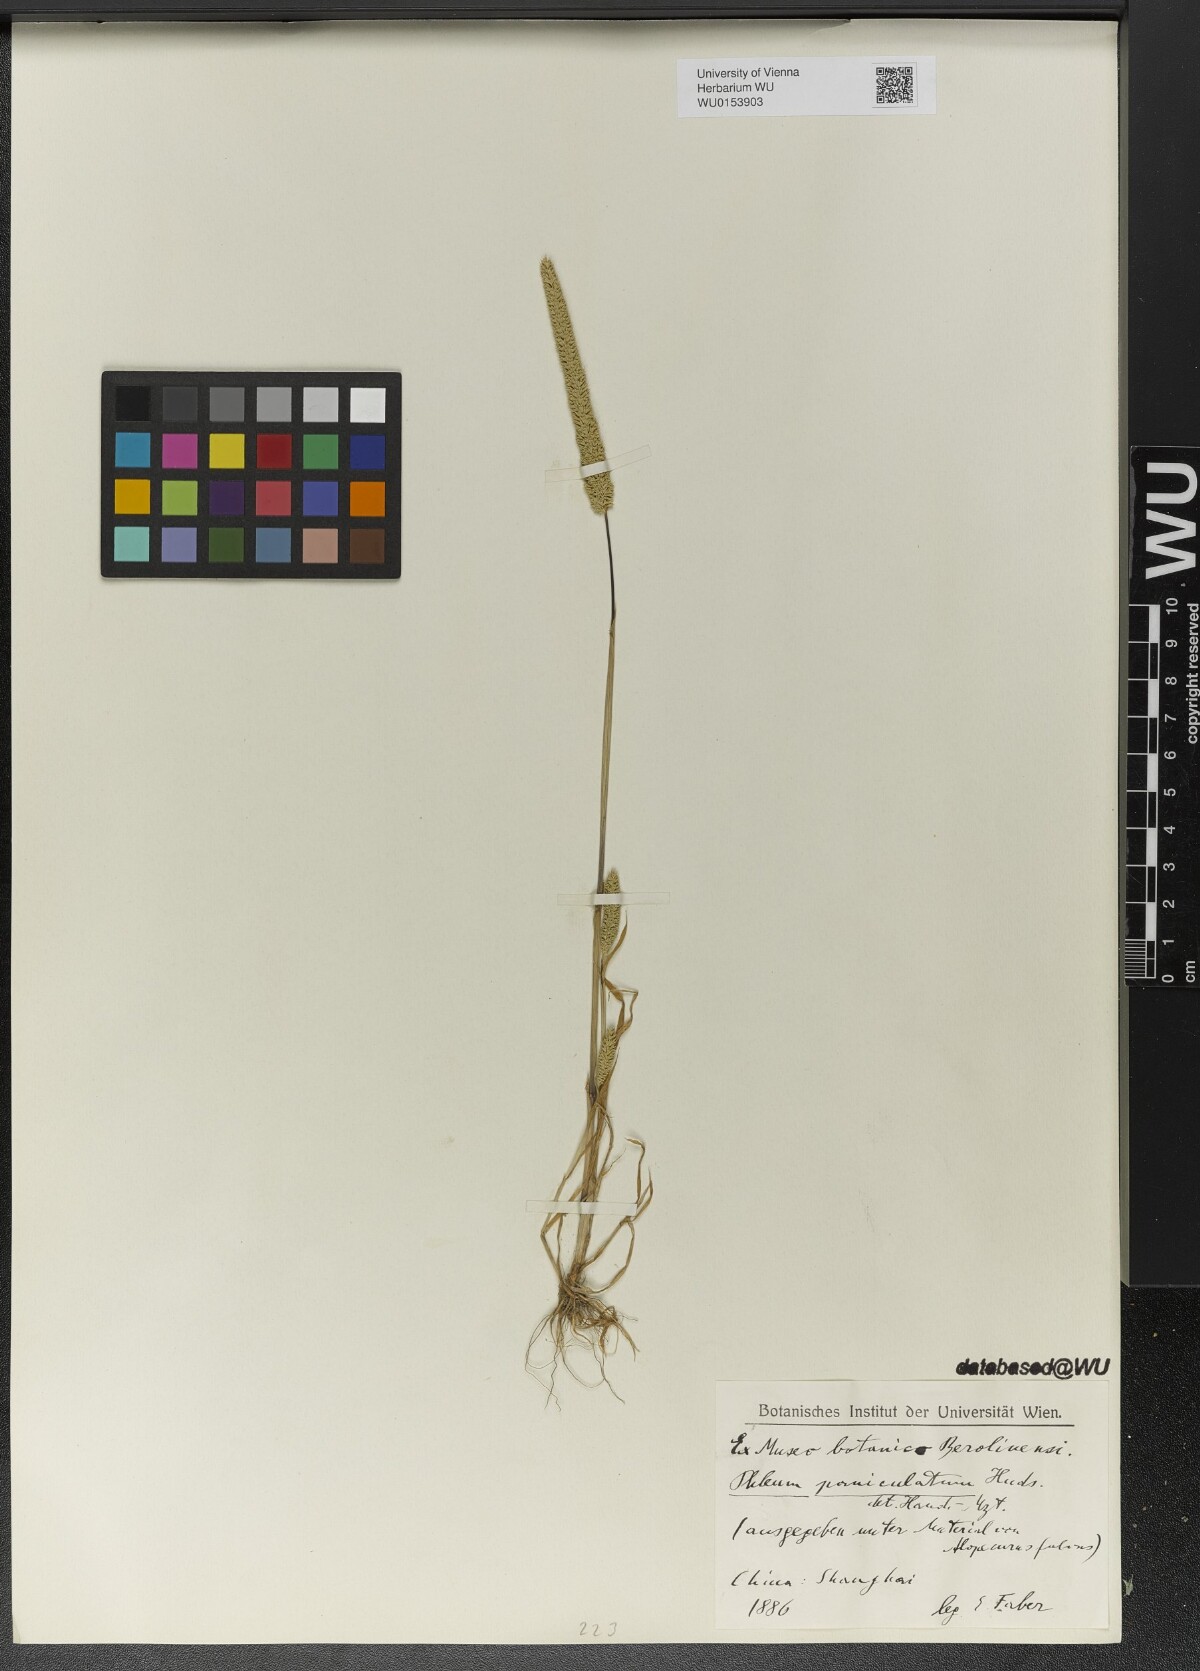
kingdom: Plantae
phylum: Tracheophyta
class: Liliopsida
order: Poales
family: Poaceae
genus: Phleum
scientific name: Phleum paniculatum
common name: British timothy
